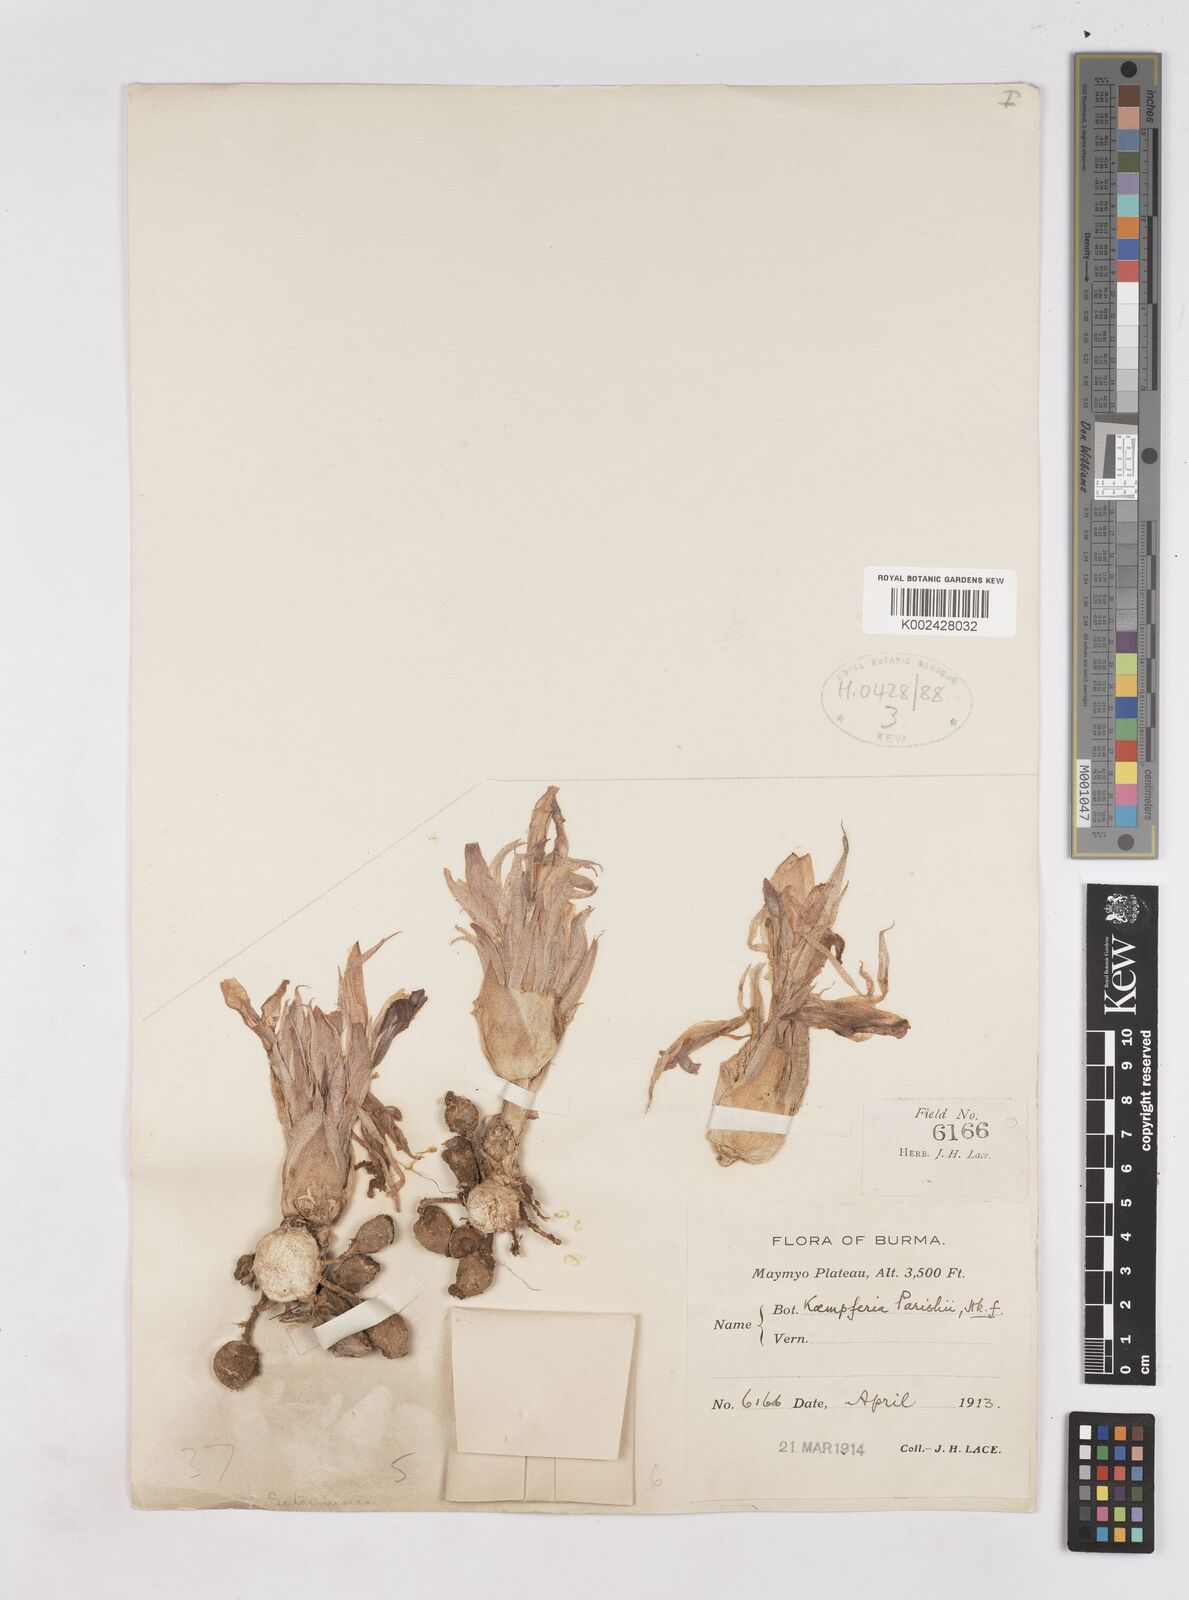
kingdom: Plantae
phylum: Tracheophyta
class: Liliopsida
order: Zingiberales
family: Zingiberaceae
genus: Kaempferia
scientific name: Kaempferia rotunda
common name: Tropical-crocus
